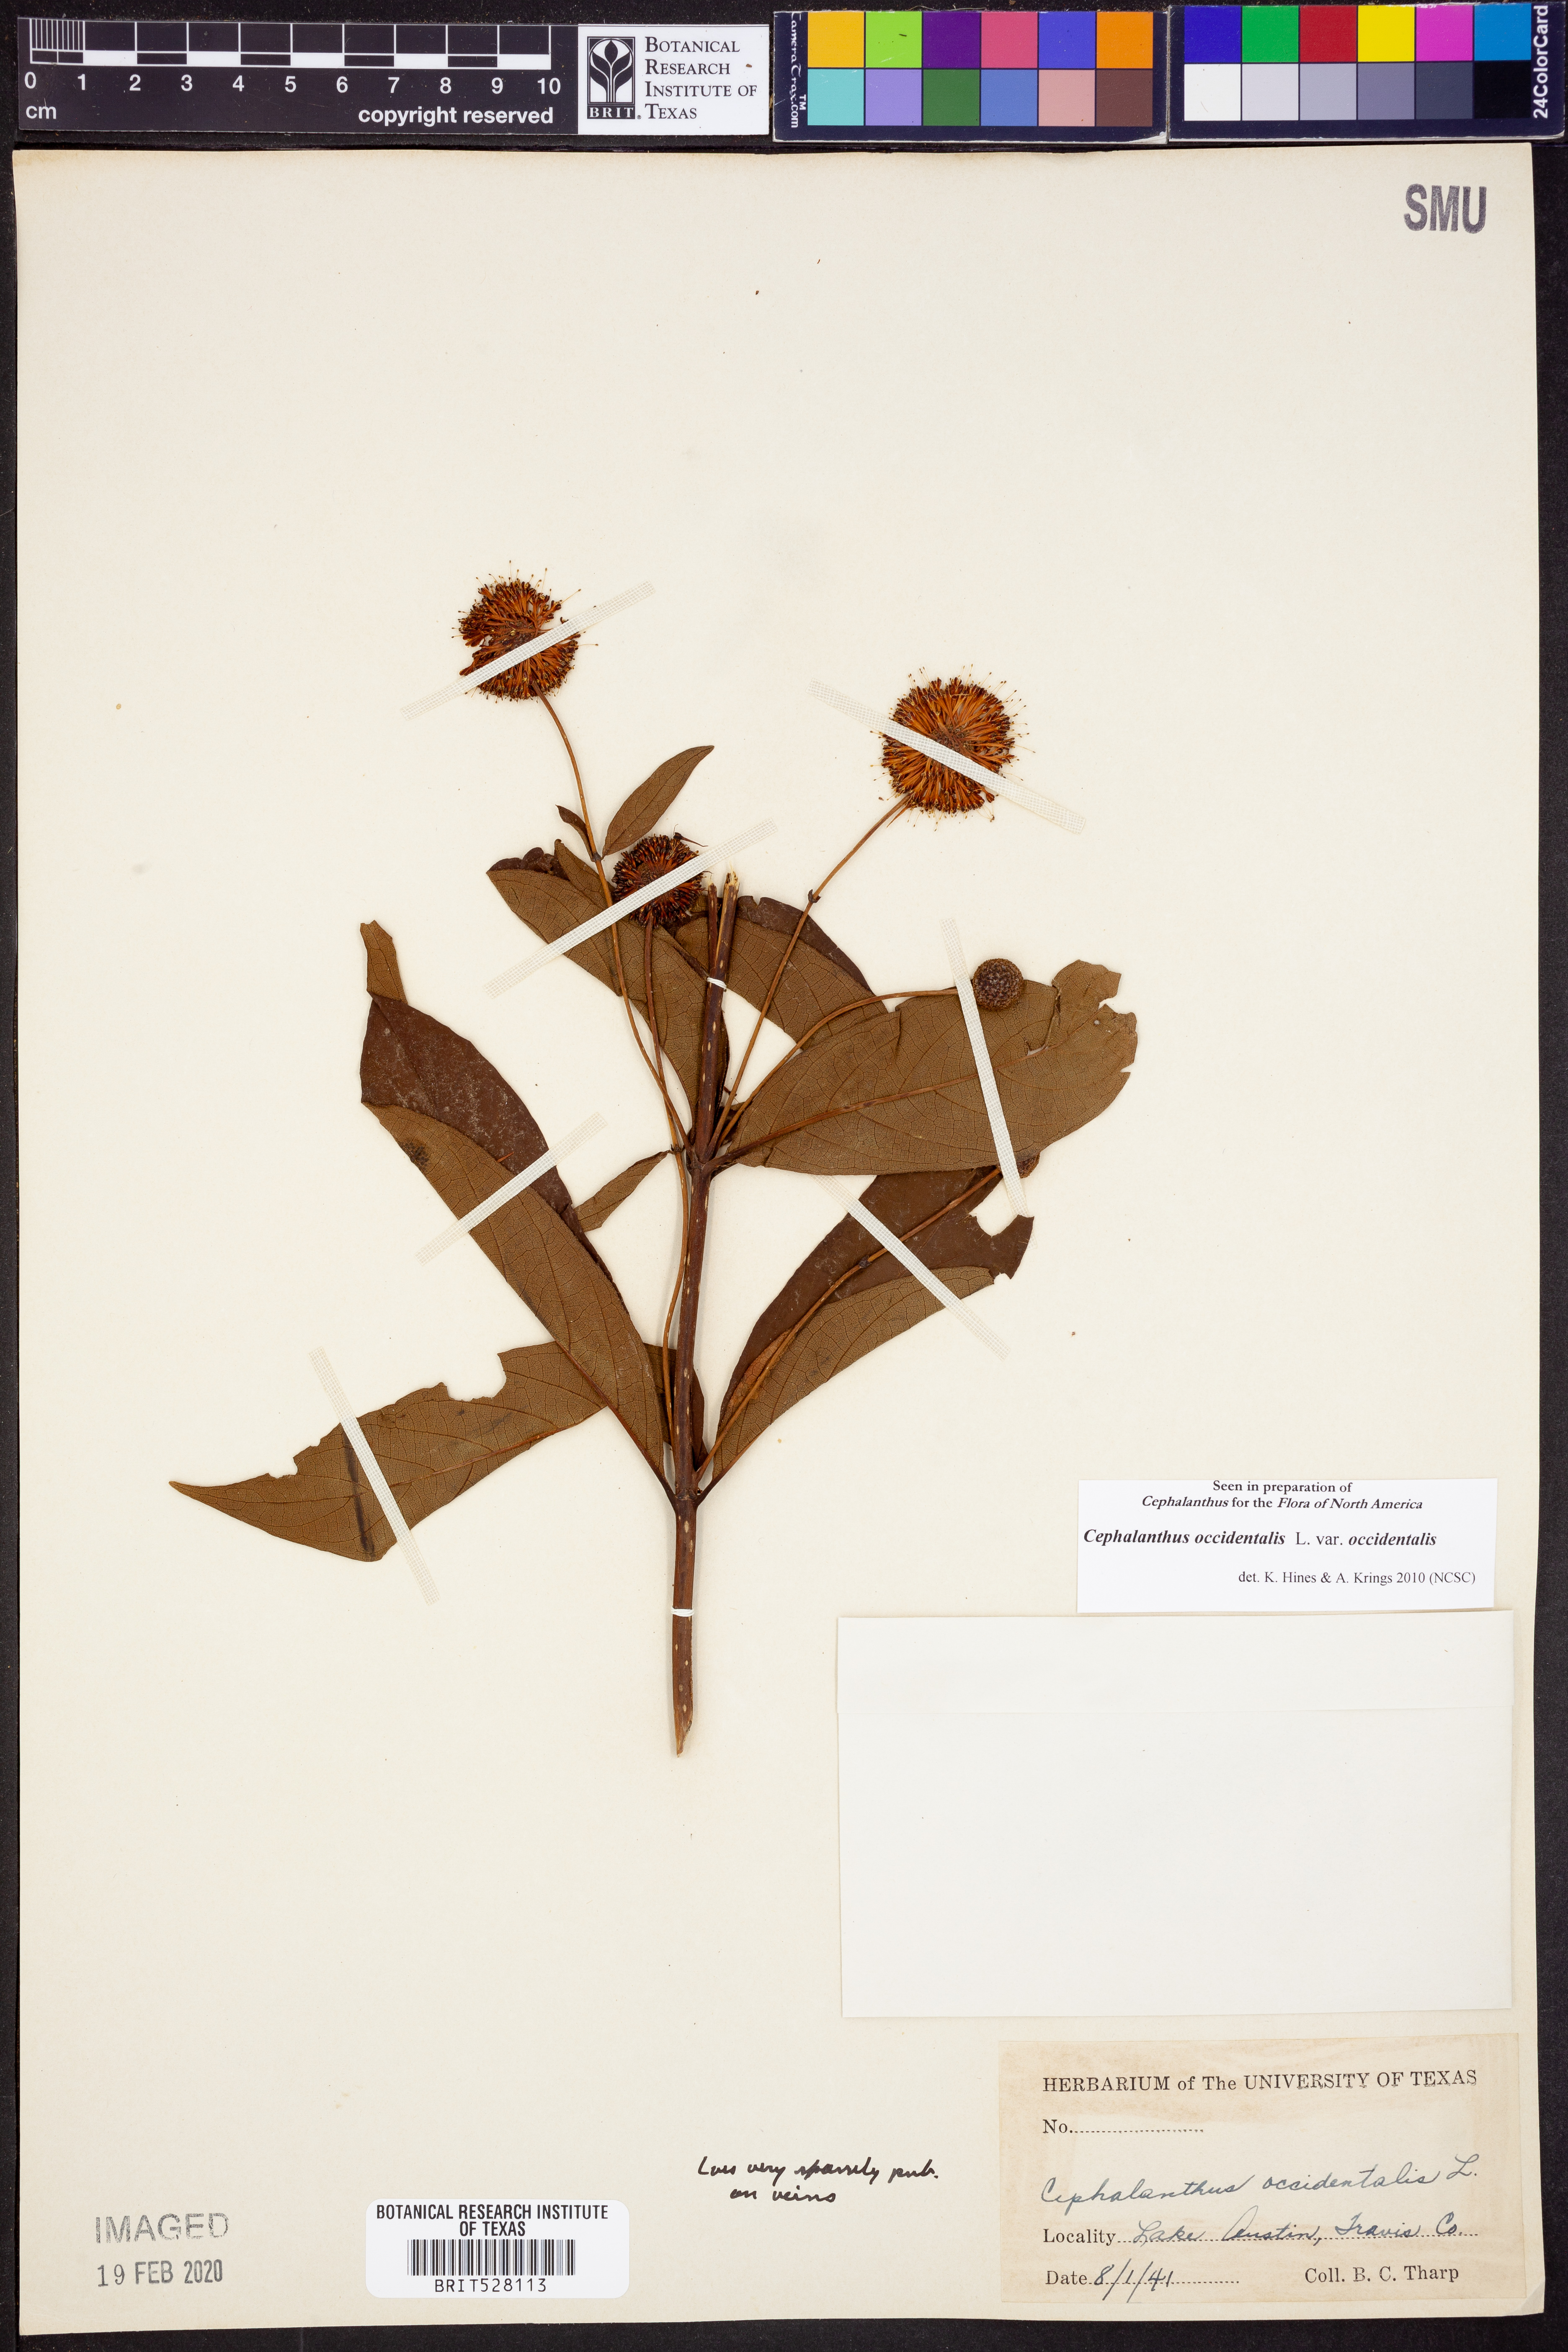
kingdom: Plantae
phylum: Tracheophyta
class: Magnoliopsida
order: Gentianales
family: Rubiaceae
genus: Cephalanthus
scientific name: Cephalanthus occidentalis
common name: Button-willow
